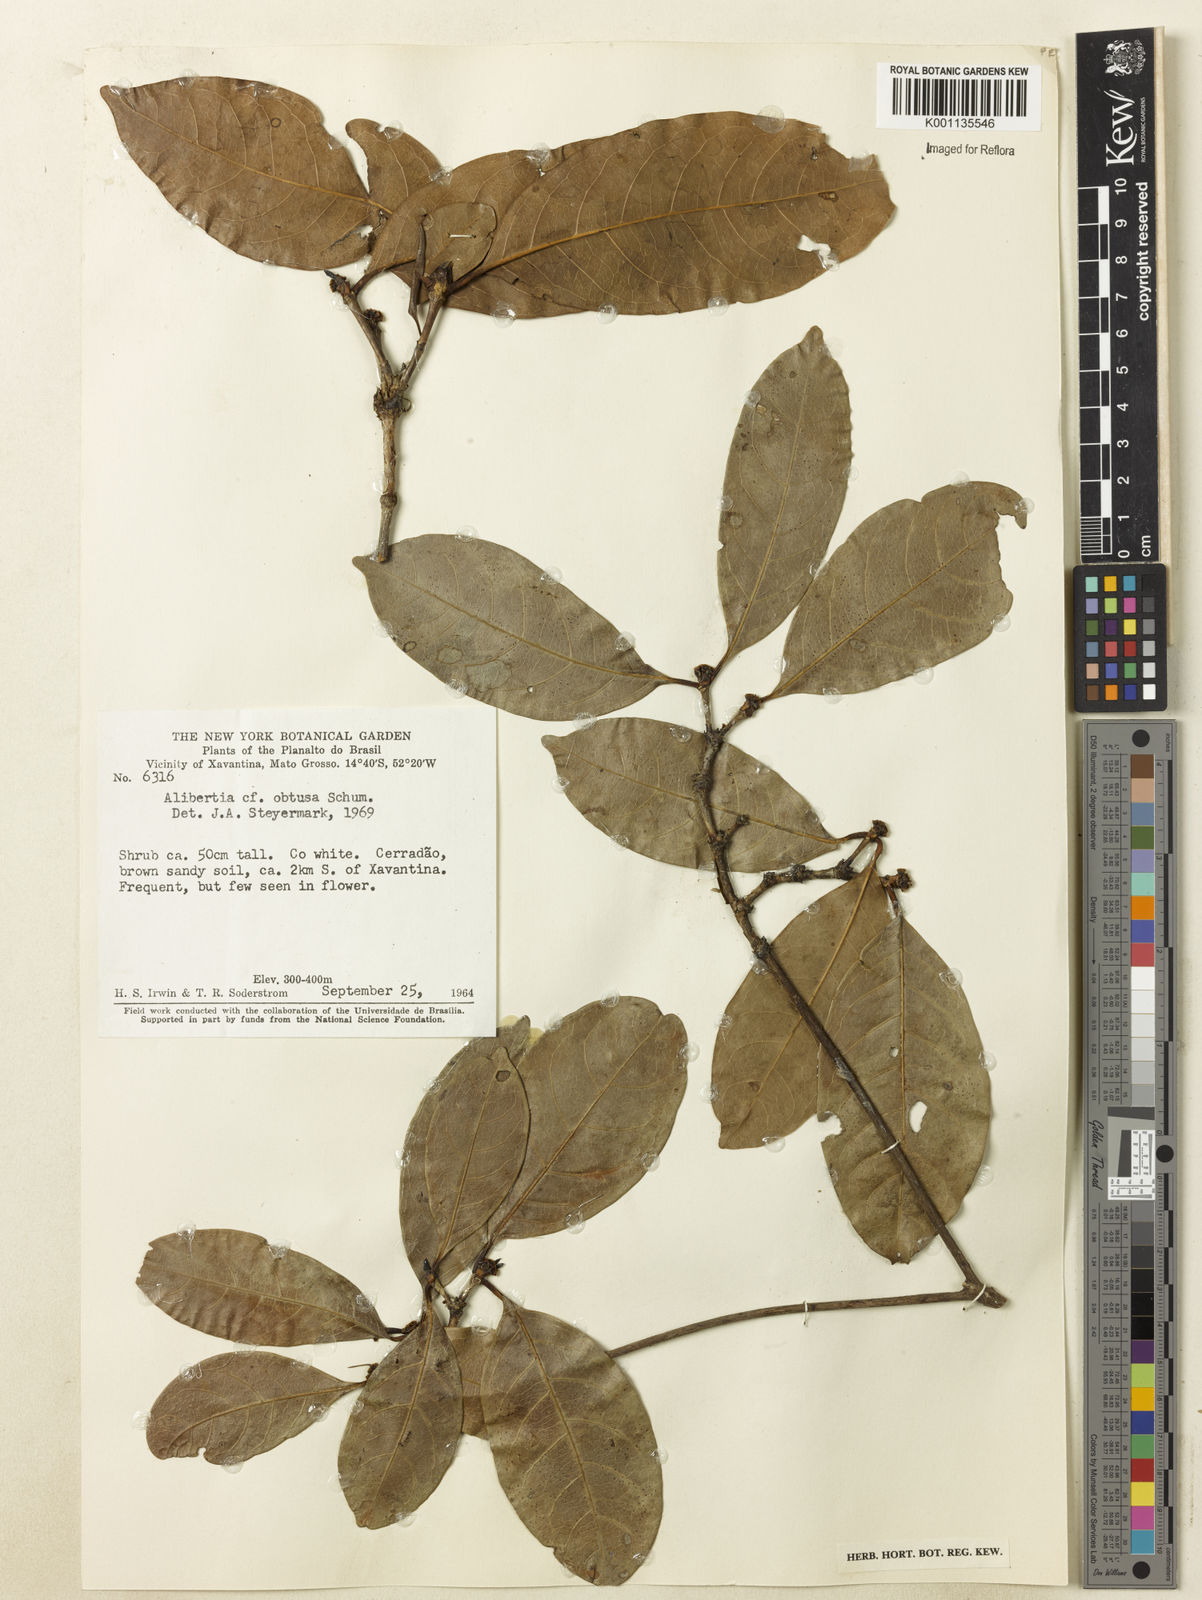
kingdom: Plantae
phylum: Tracheophyta
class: Magnoliopsida
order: Gentianales
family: Rubiaceae
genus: Cordiera
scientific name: Cordiera sessilis
